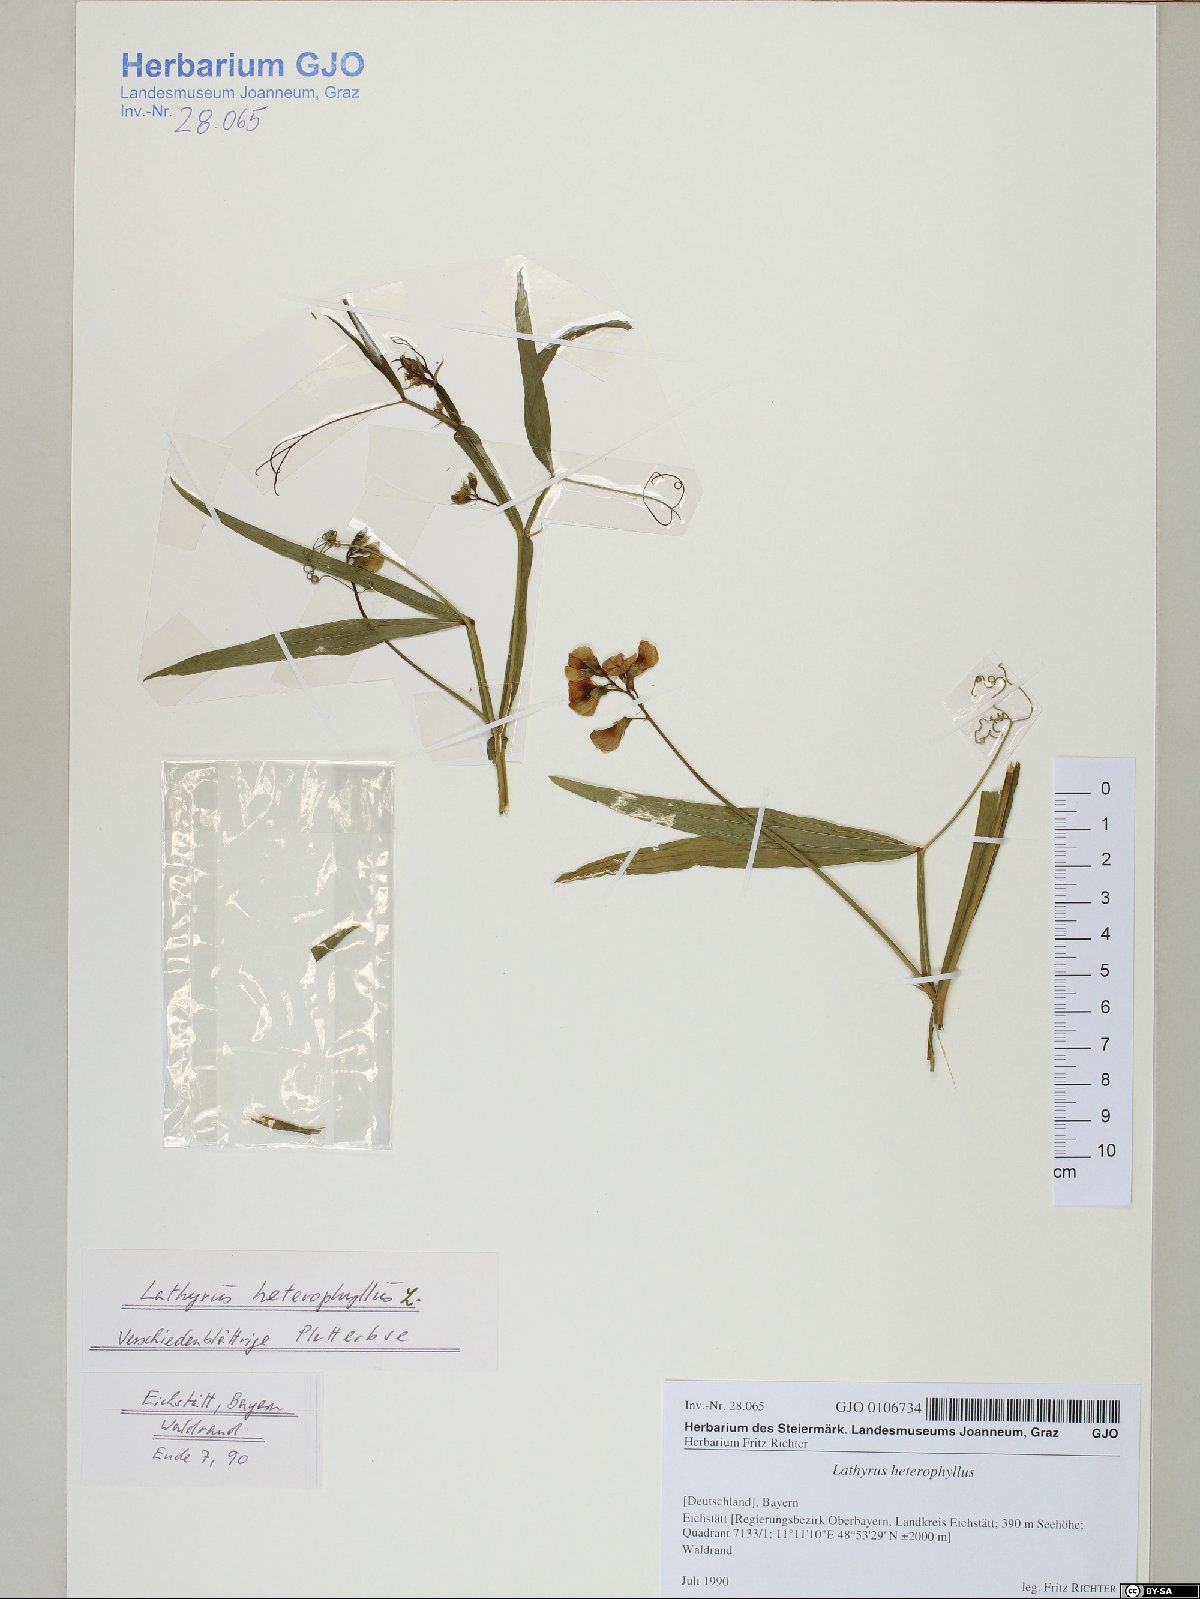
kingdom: Plantae
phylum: Tracheophyta
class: Magnoliopsida
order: Fabales
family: Fabaceae
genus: Lathyrus
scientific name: Lathyrus heterophyllus
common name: Norfolk everlasting-pea
